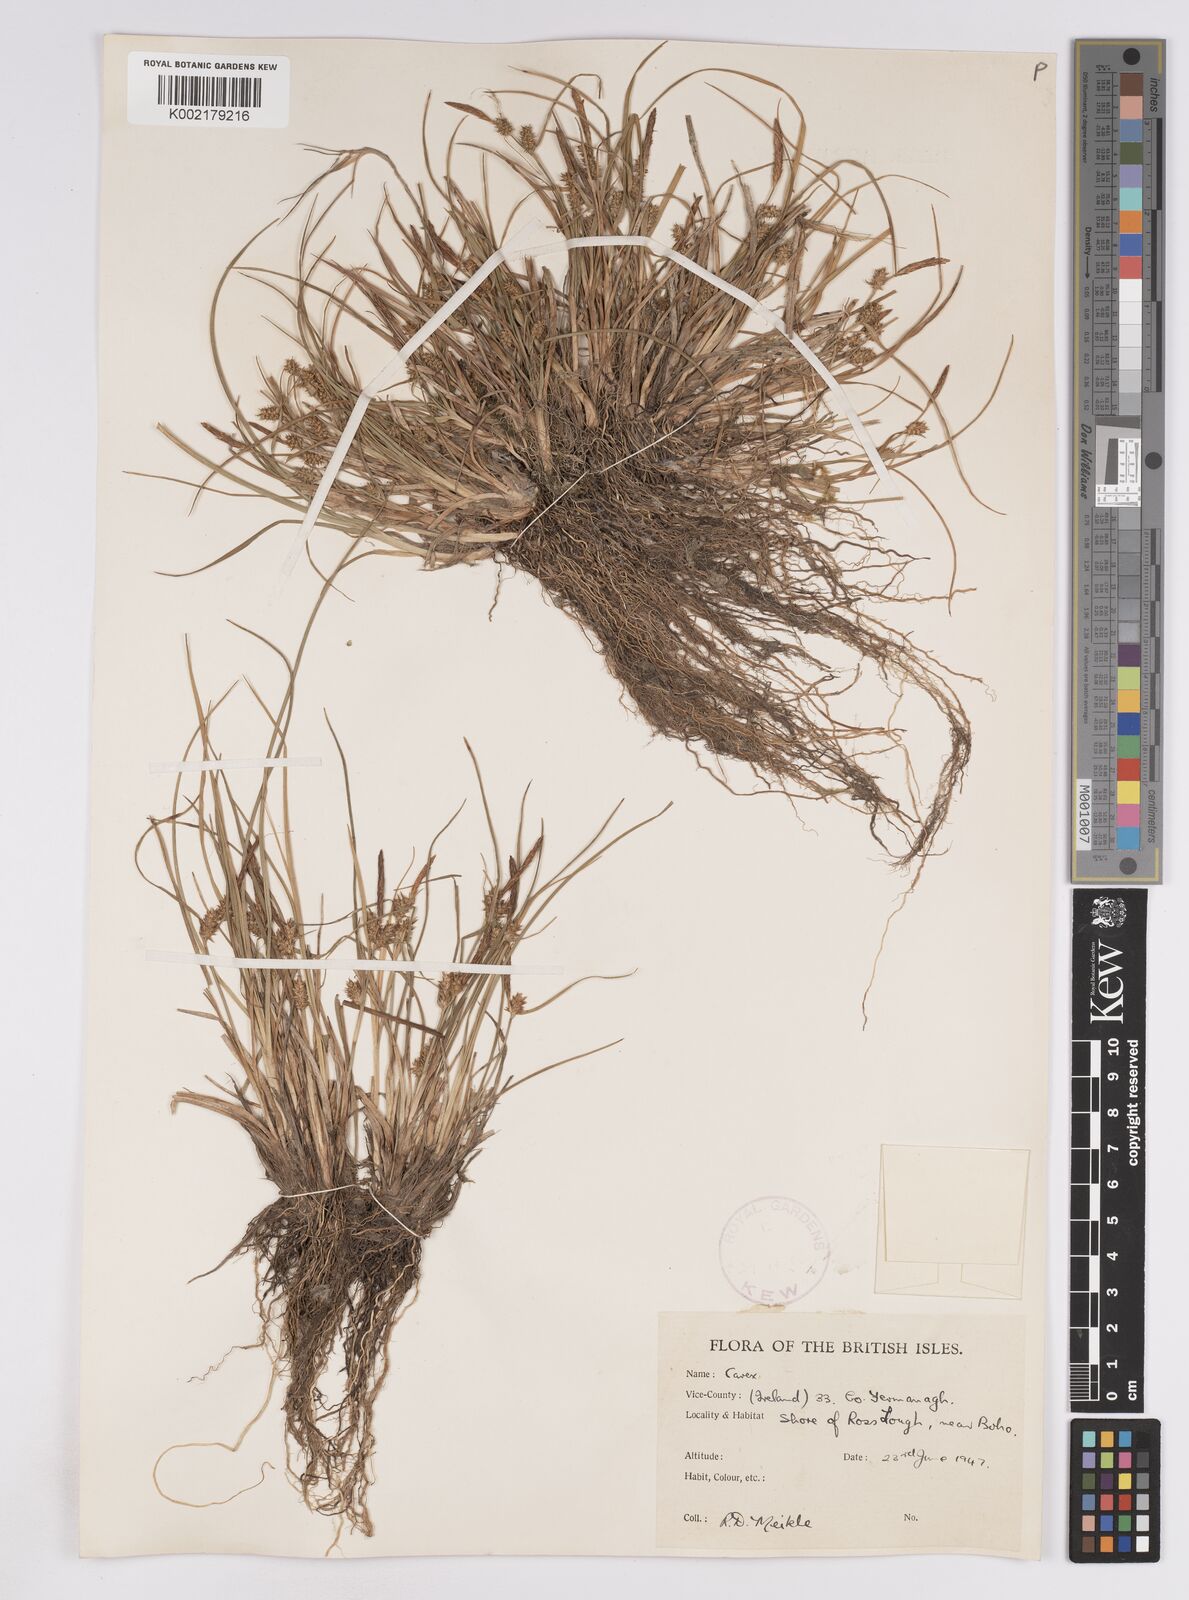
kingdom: Plantae
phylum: Tracheophyta
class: Liliopsida
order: Poales
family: Cyperaceae
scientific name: Cyperaceae
